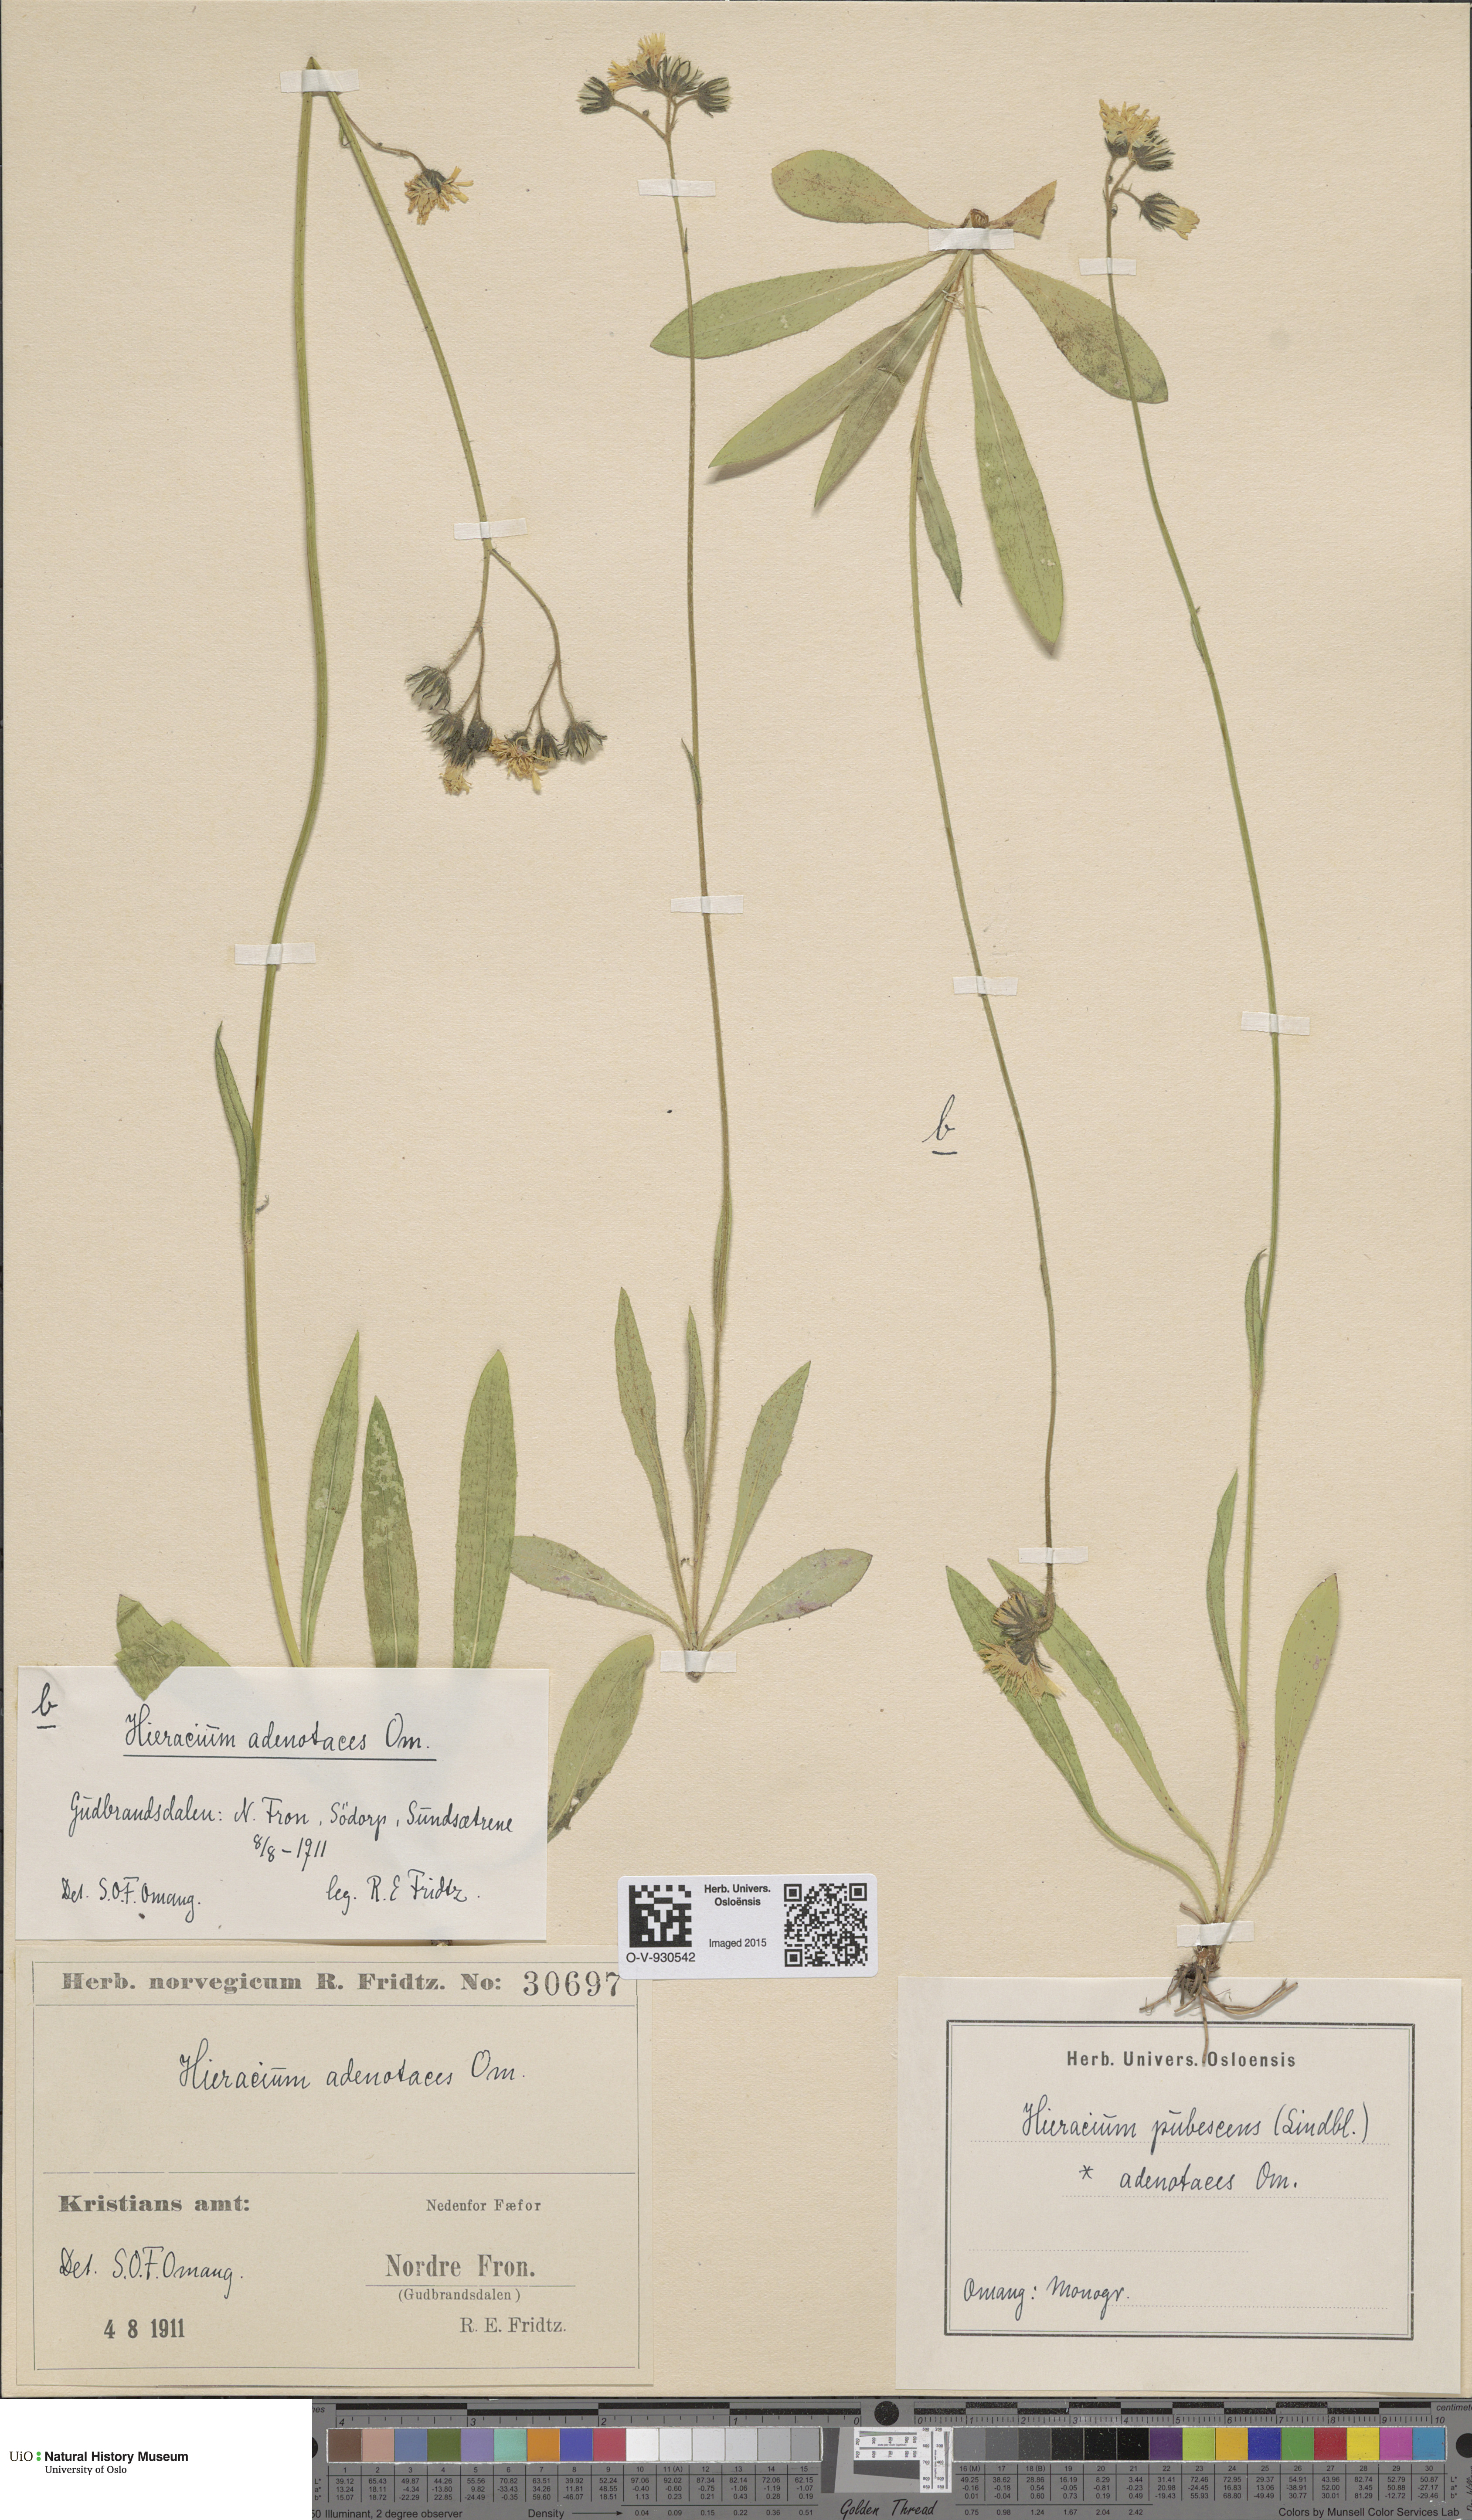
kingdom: Plantae
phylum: Tracheophyta
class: Magnoliopsida
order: Asterales
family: Asteraceae
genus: Pilosella
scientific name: Pilosella cymosa
